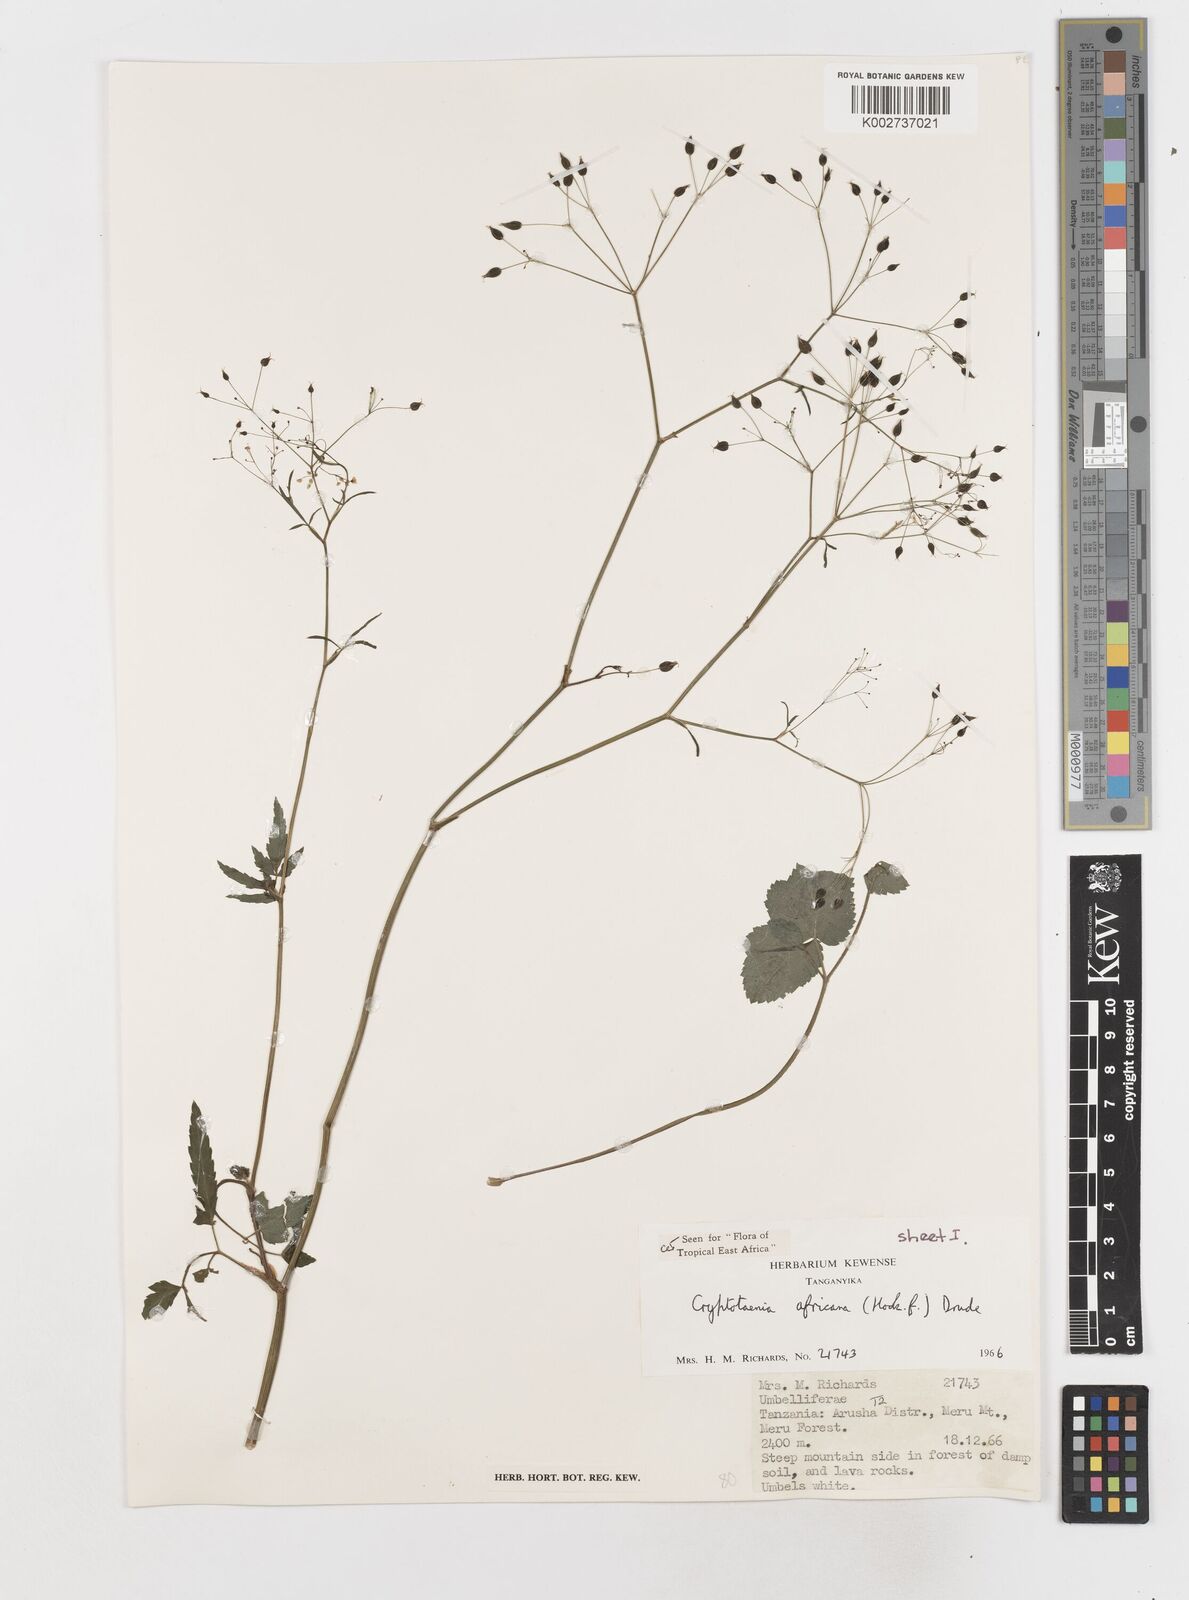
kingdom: Plantae
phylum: Tracheophyta
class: Magnoliopsida
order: Apiales
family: Apiaceae
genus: Cryptotaenia
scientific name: Cryptotaenia africana
